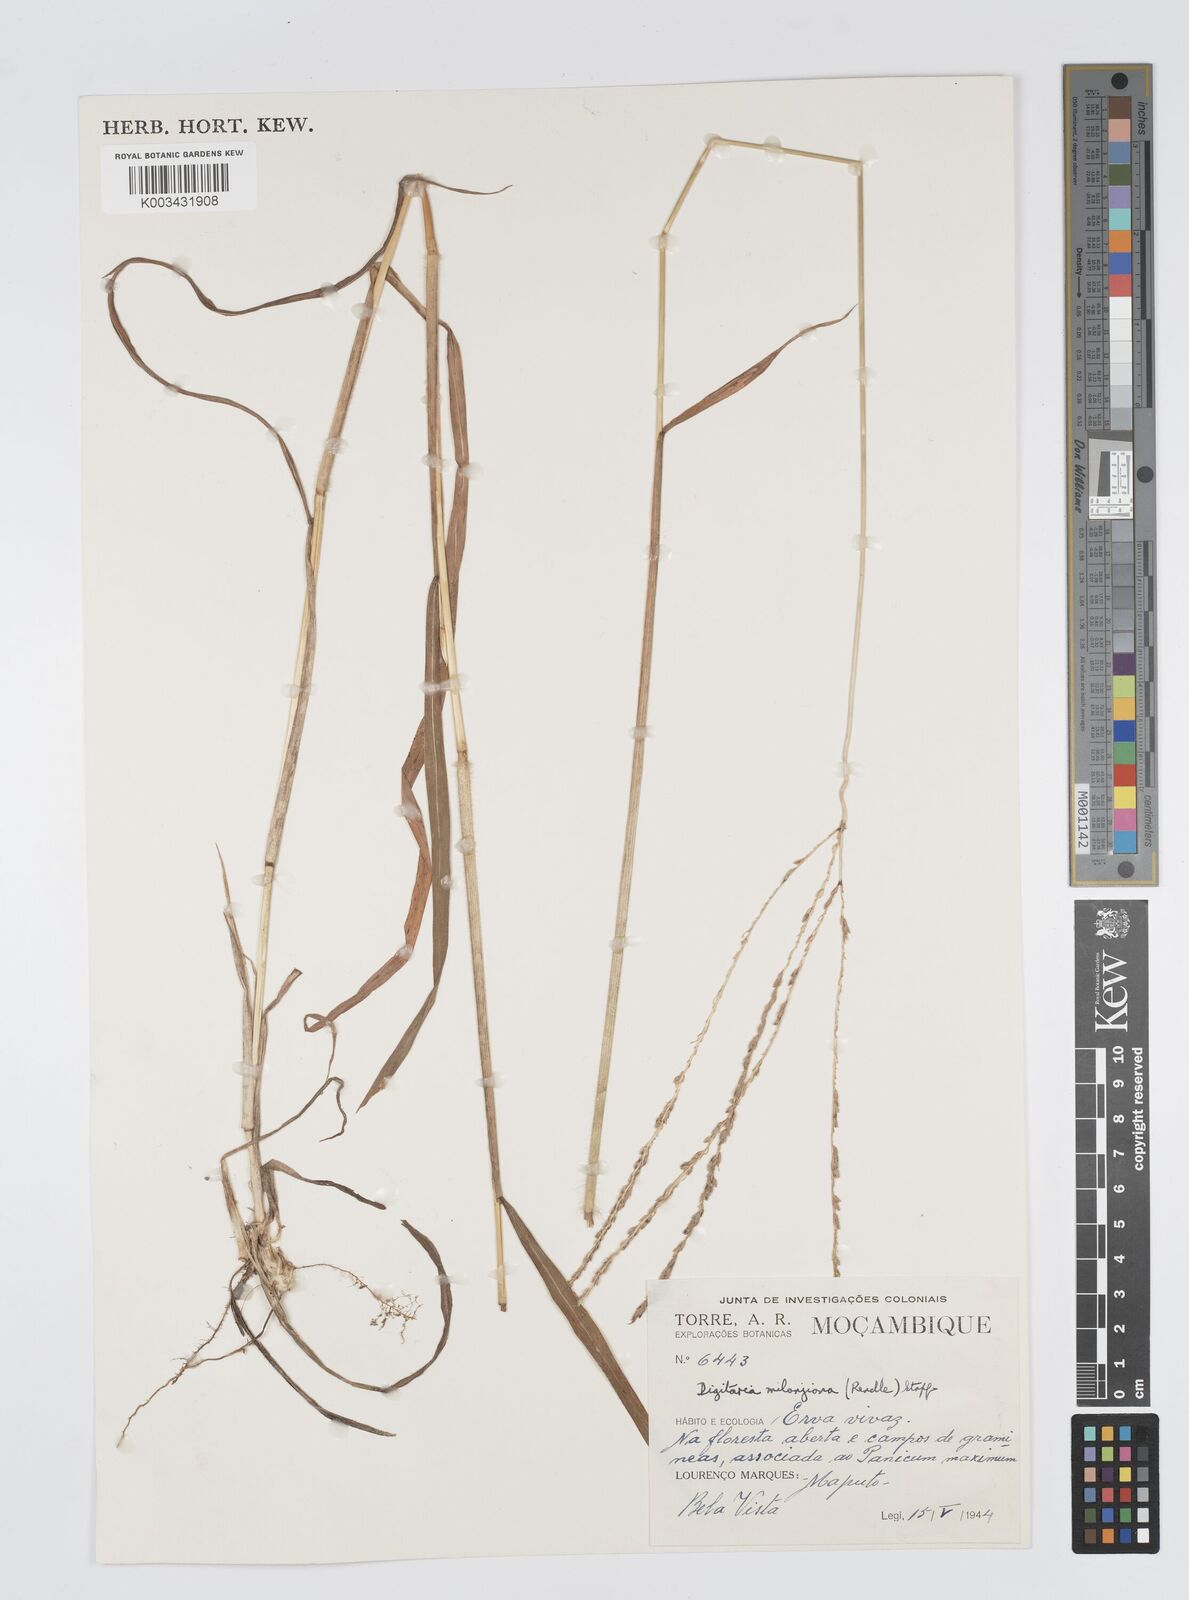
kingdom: Plantae
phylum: Tracheophyta
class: Liliopsida
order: Poales
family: Poaceae
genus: Digitaria
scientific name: Digitaria milanjiana
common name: Madagascar crabgrass
